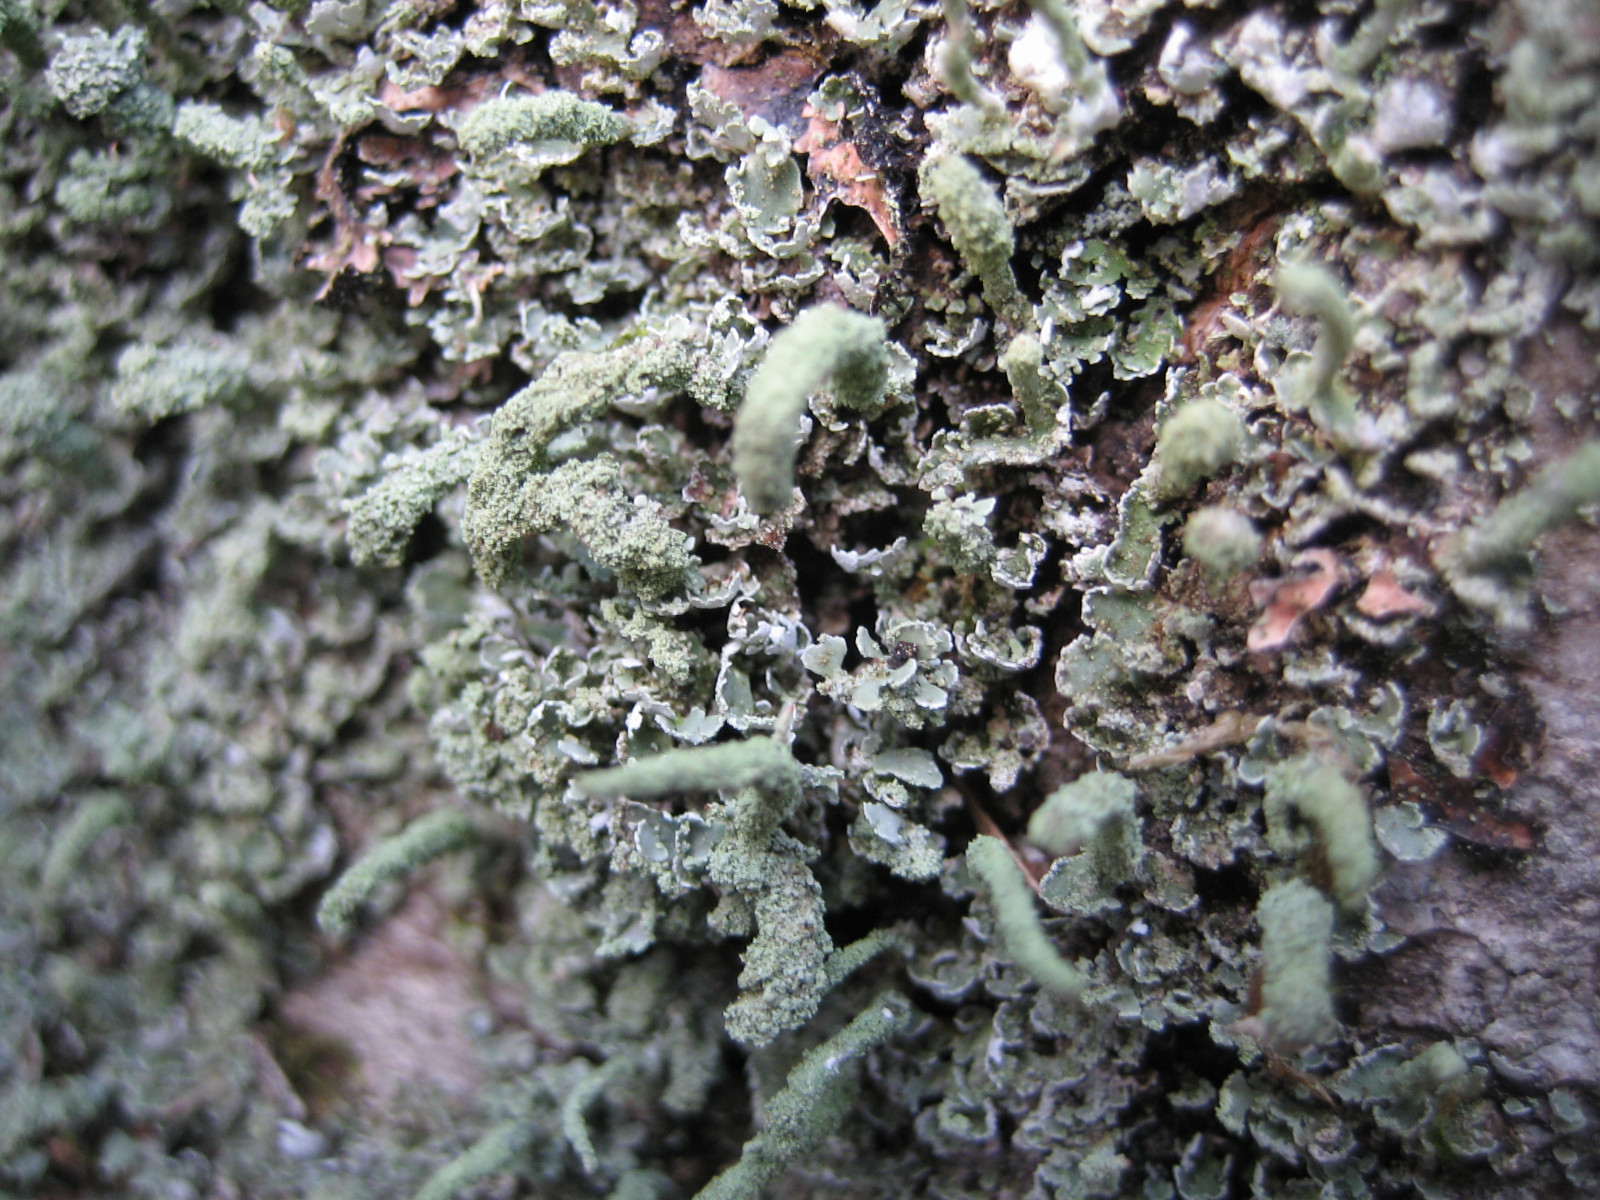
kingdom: Fungi
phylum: Ascomycota
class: Lecanoromycetes
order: Lecanorales
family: Cladoniaceae
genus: Cladonia
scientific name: Cladonia coniocraea
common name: træfods-bægerlav
